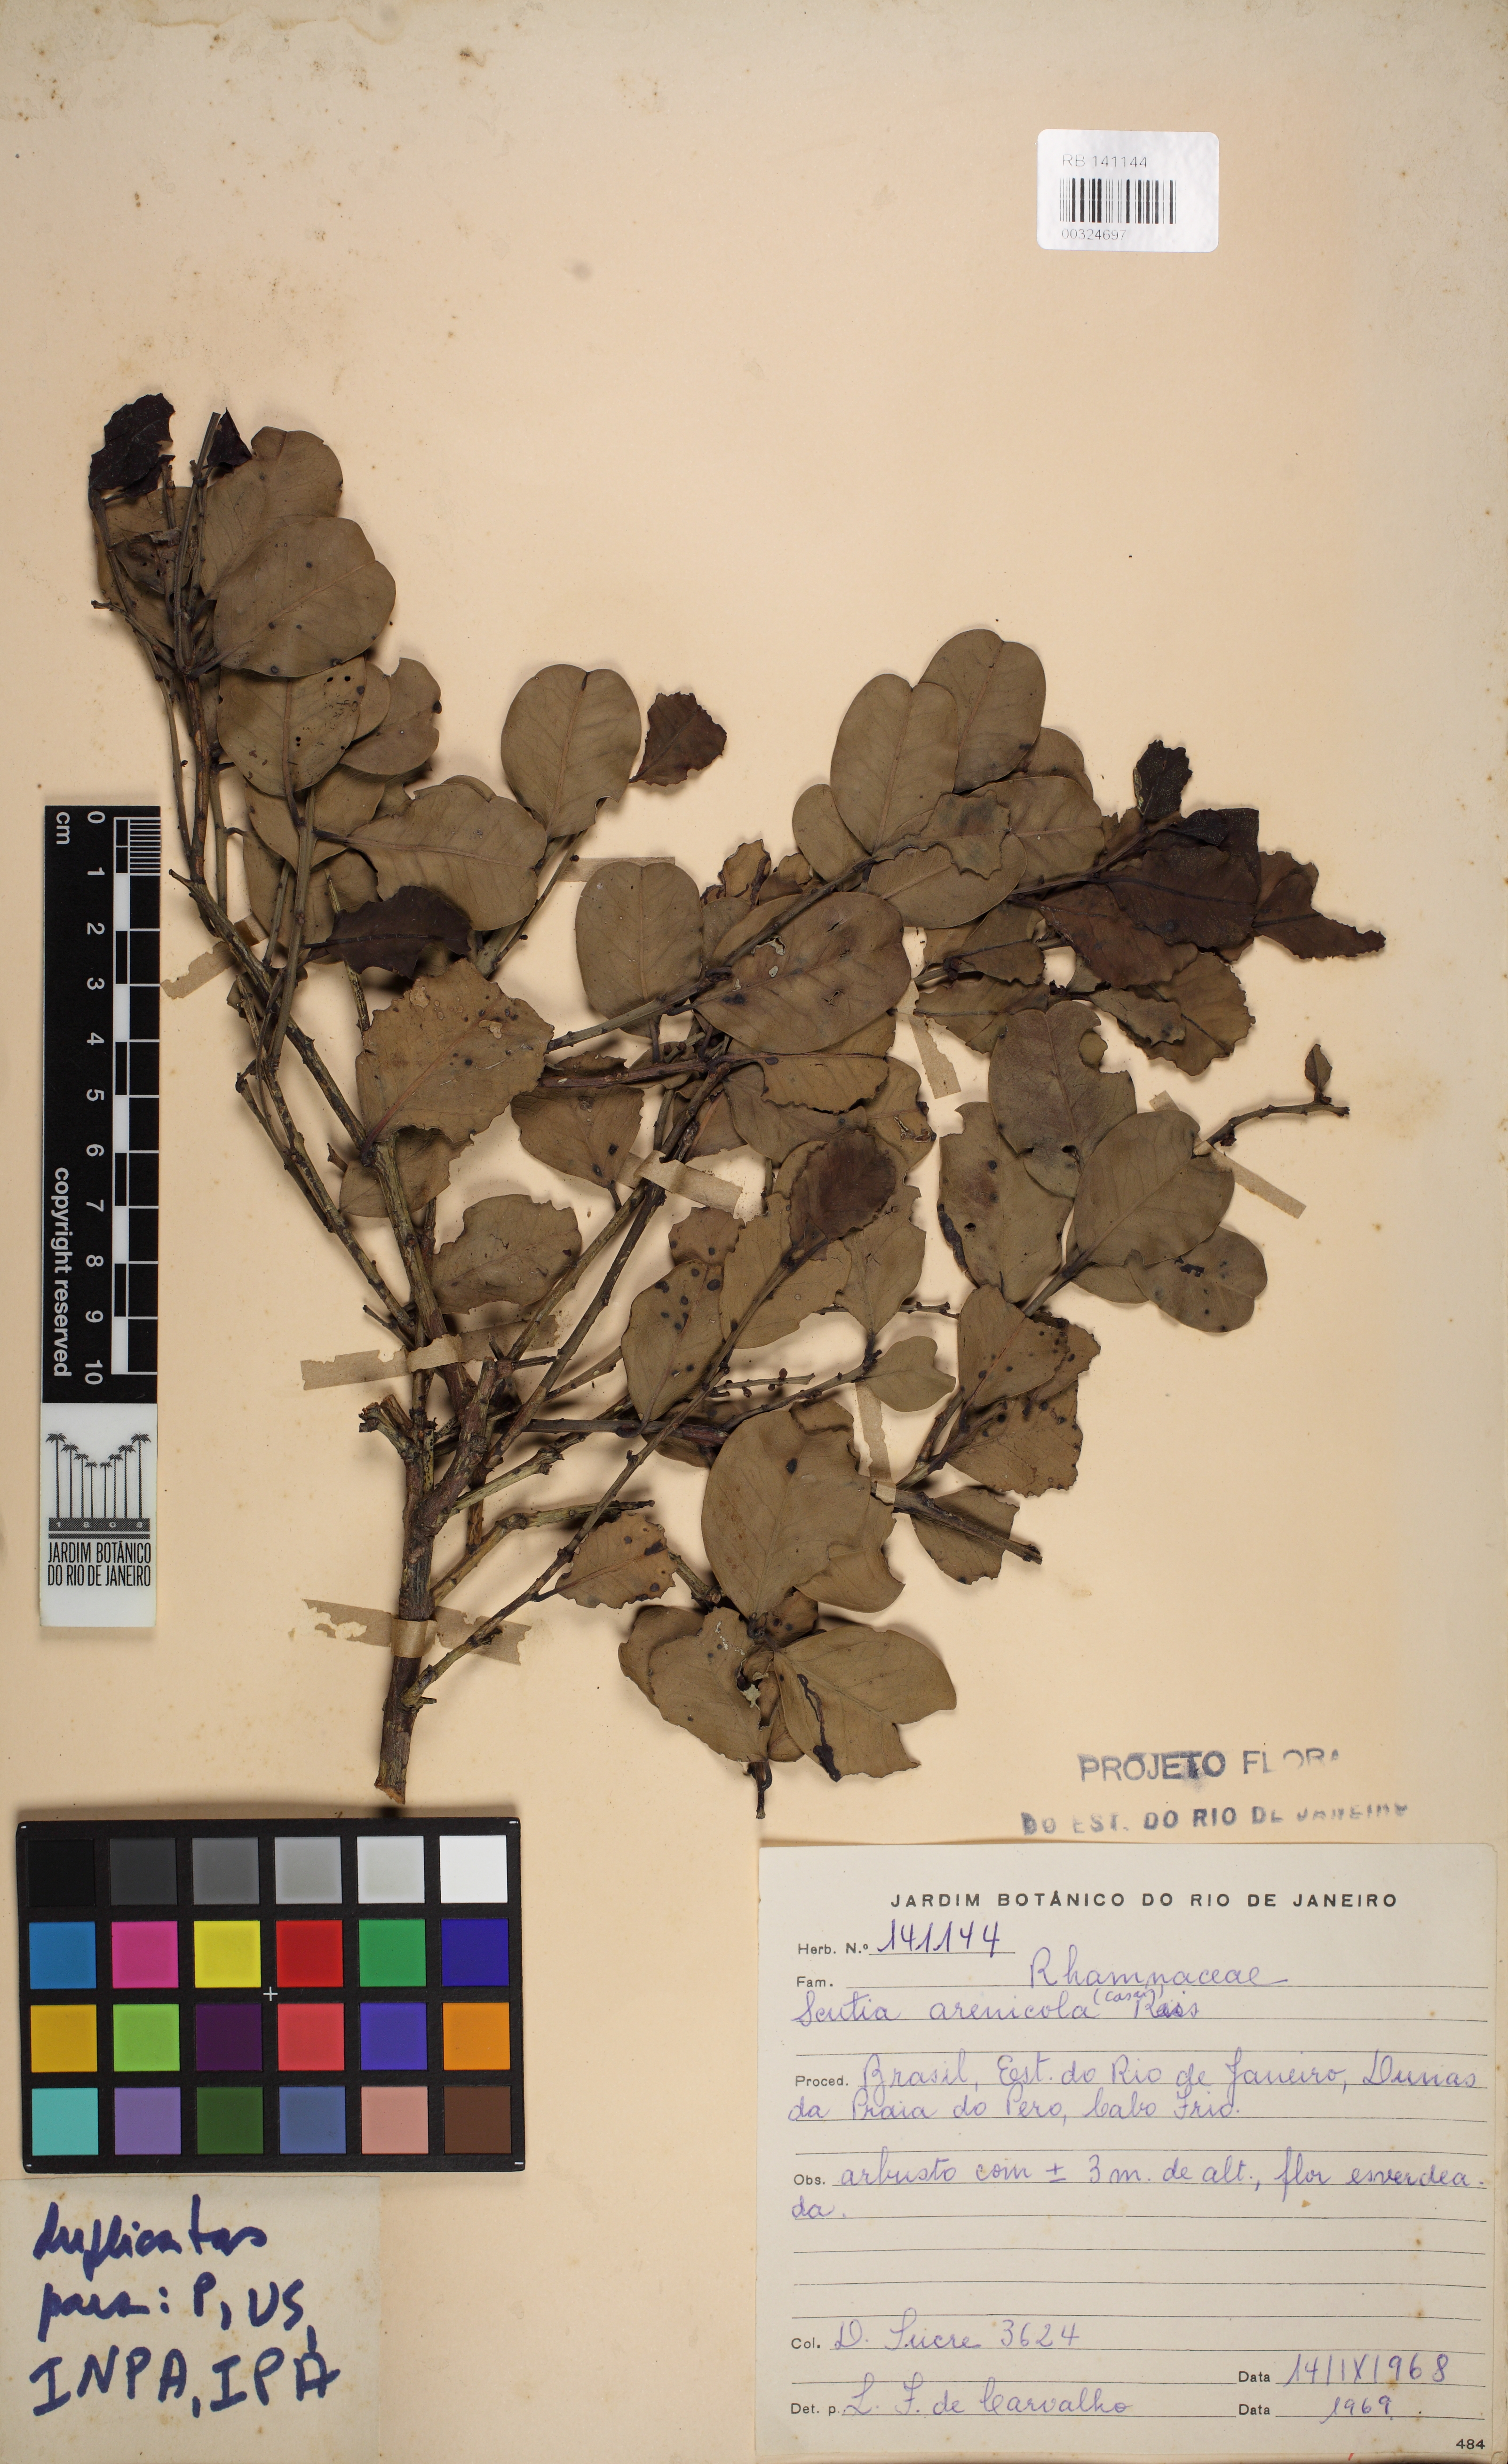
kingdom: Plantae
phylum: Tracheophyta
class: Magnoliopsida
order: Rosales
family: Rhamnaceae
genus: Scutia
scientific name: Scutia arenicola
